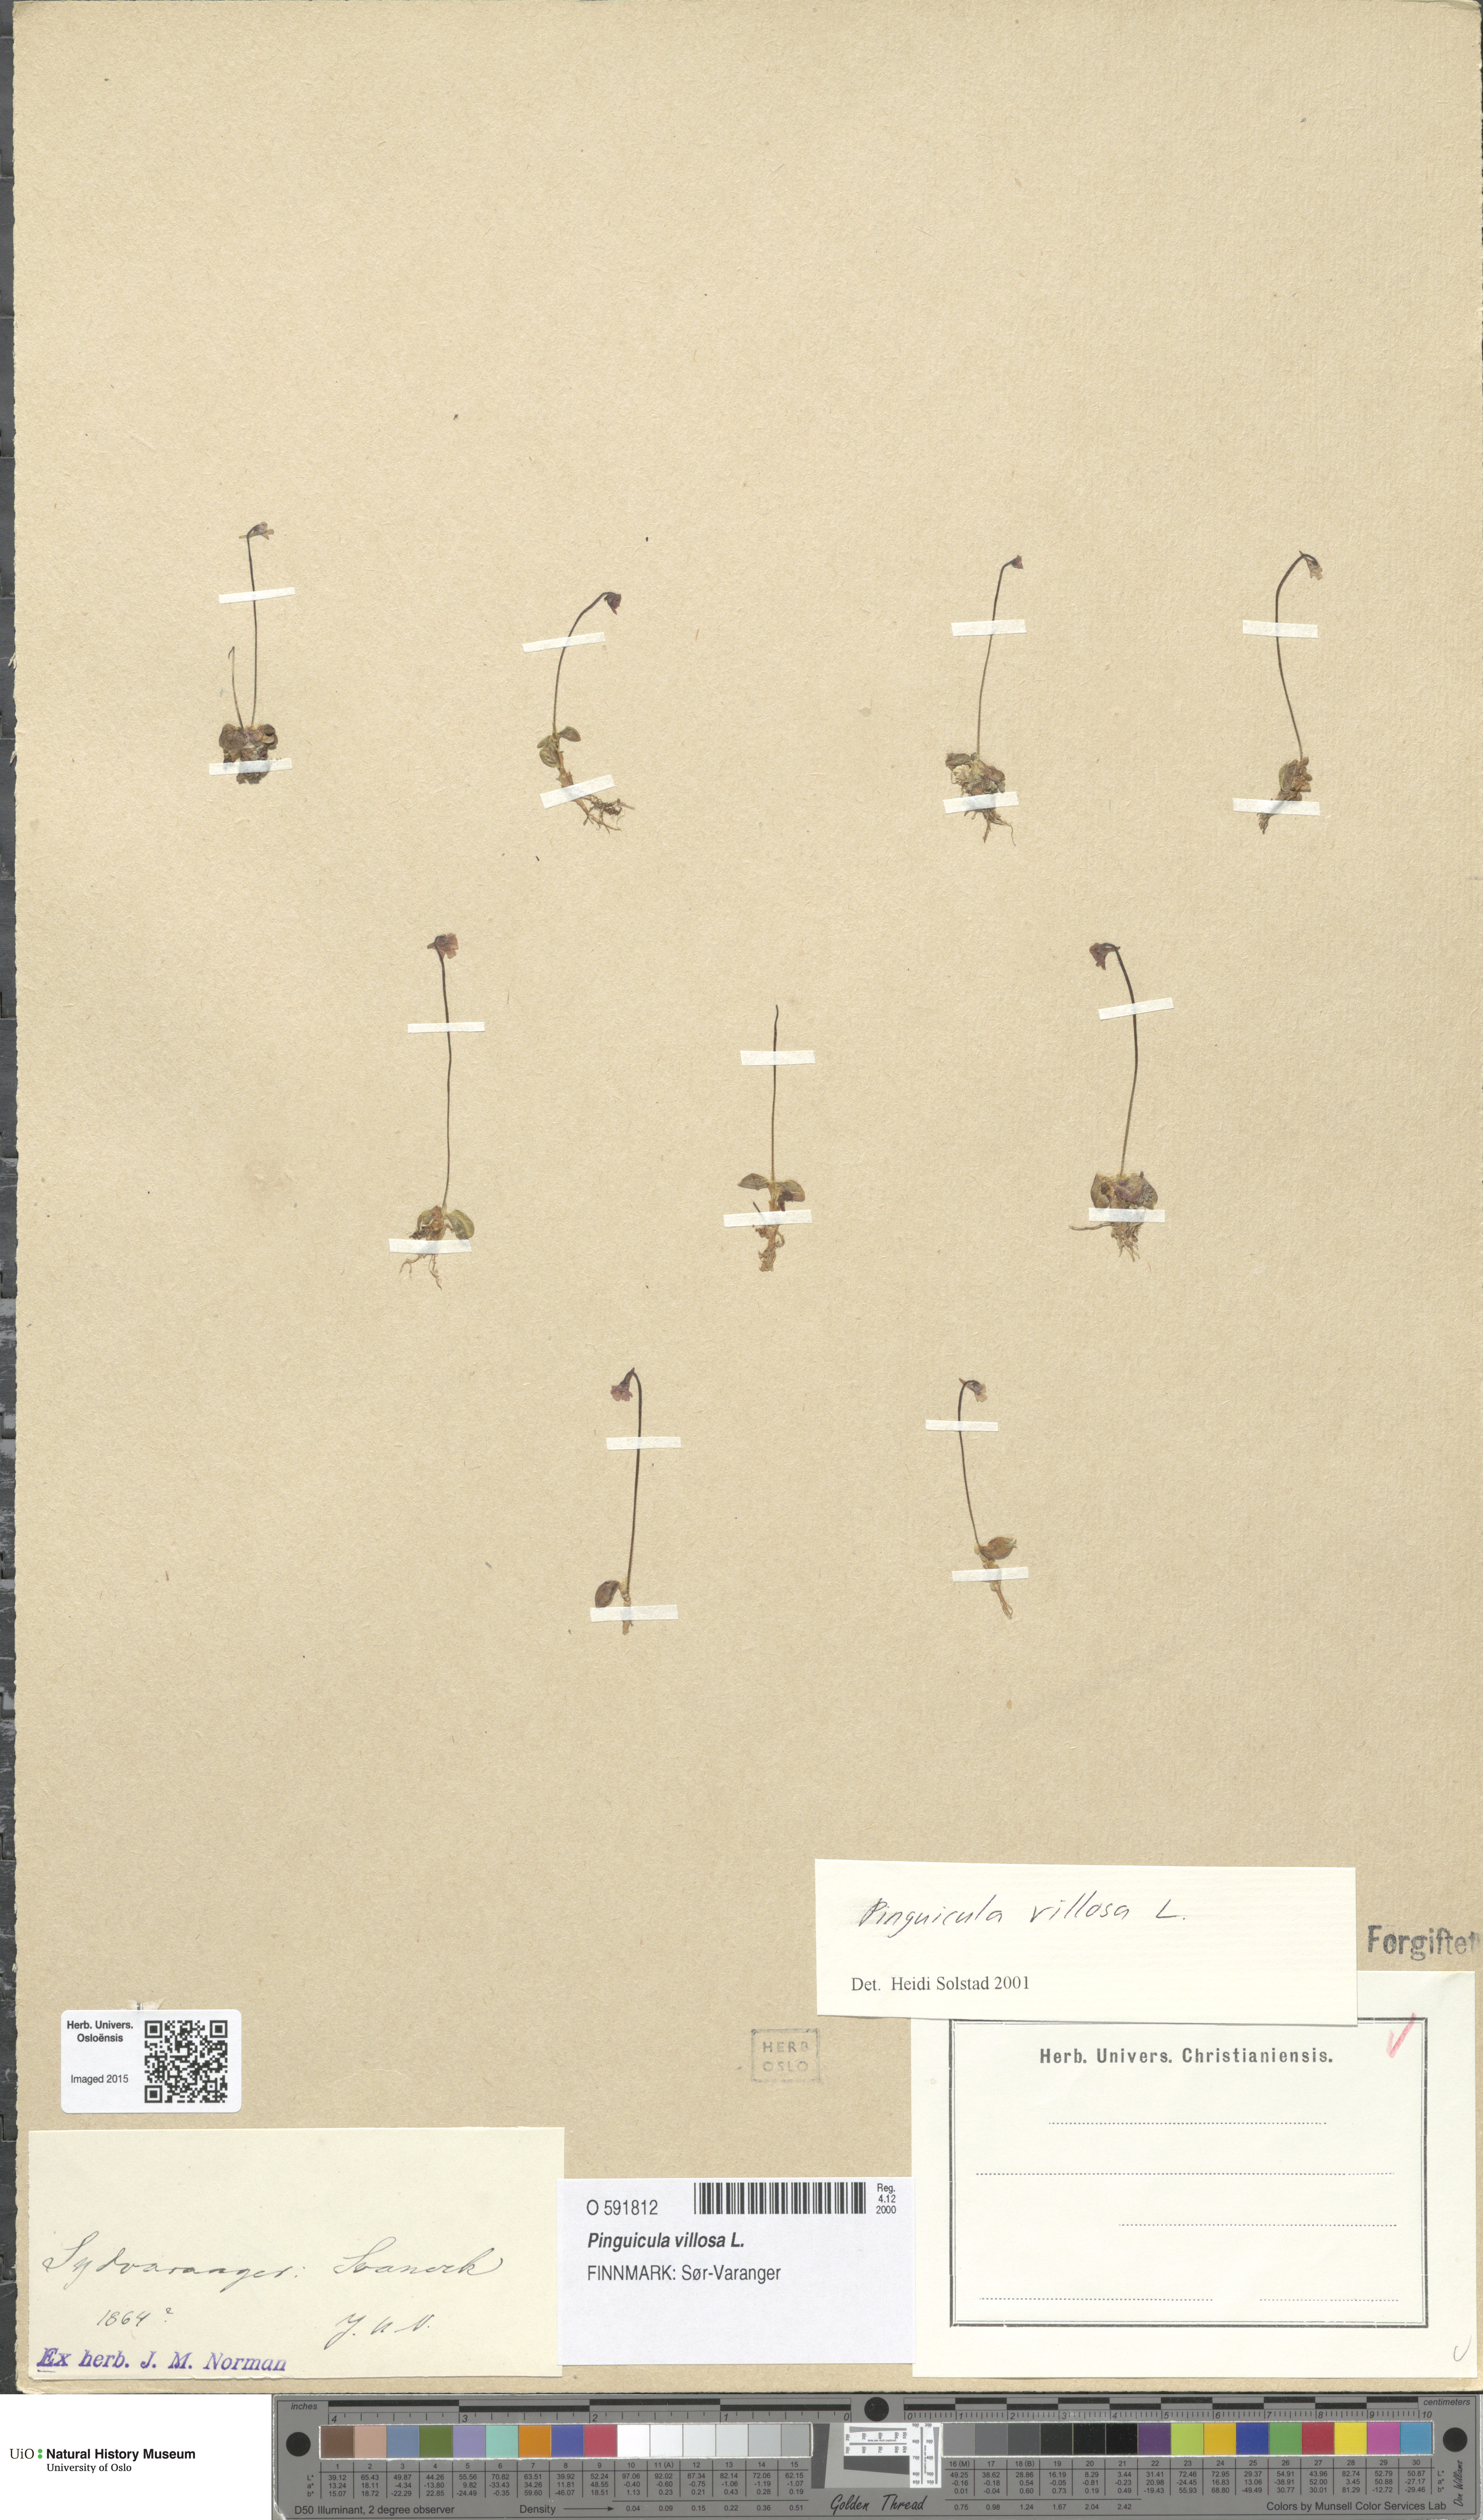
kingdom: Plantae
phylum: Tracheophyta
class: Magnoliopsida
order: Lamiales
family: Lentibulariaceae
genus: Pinguicula
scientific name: Pinguicula villosa
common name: Hairy butterwort
